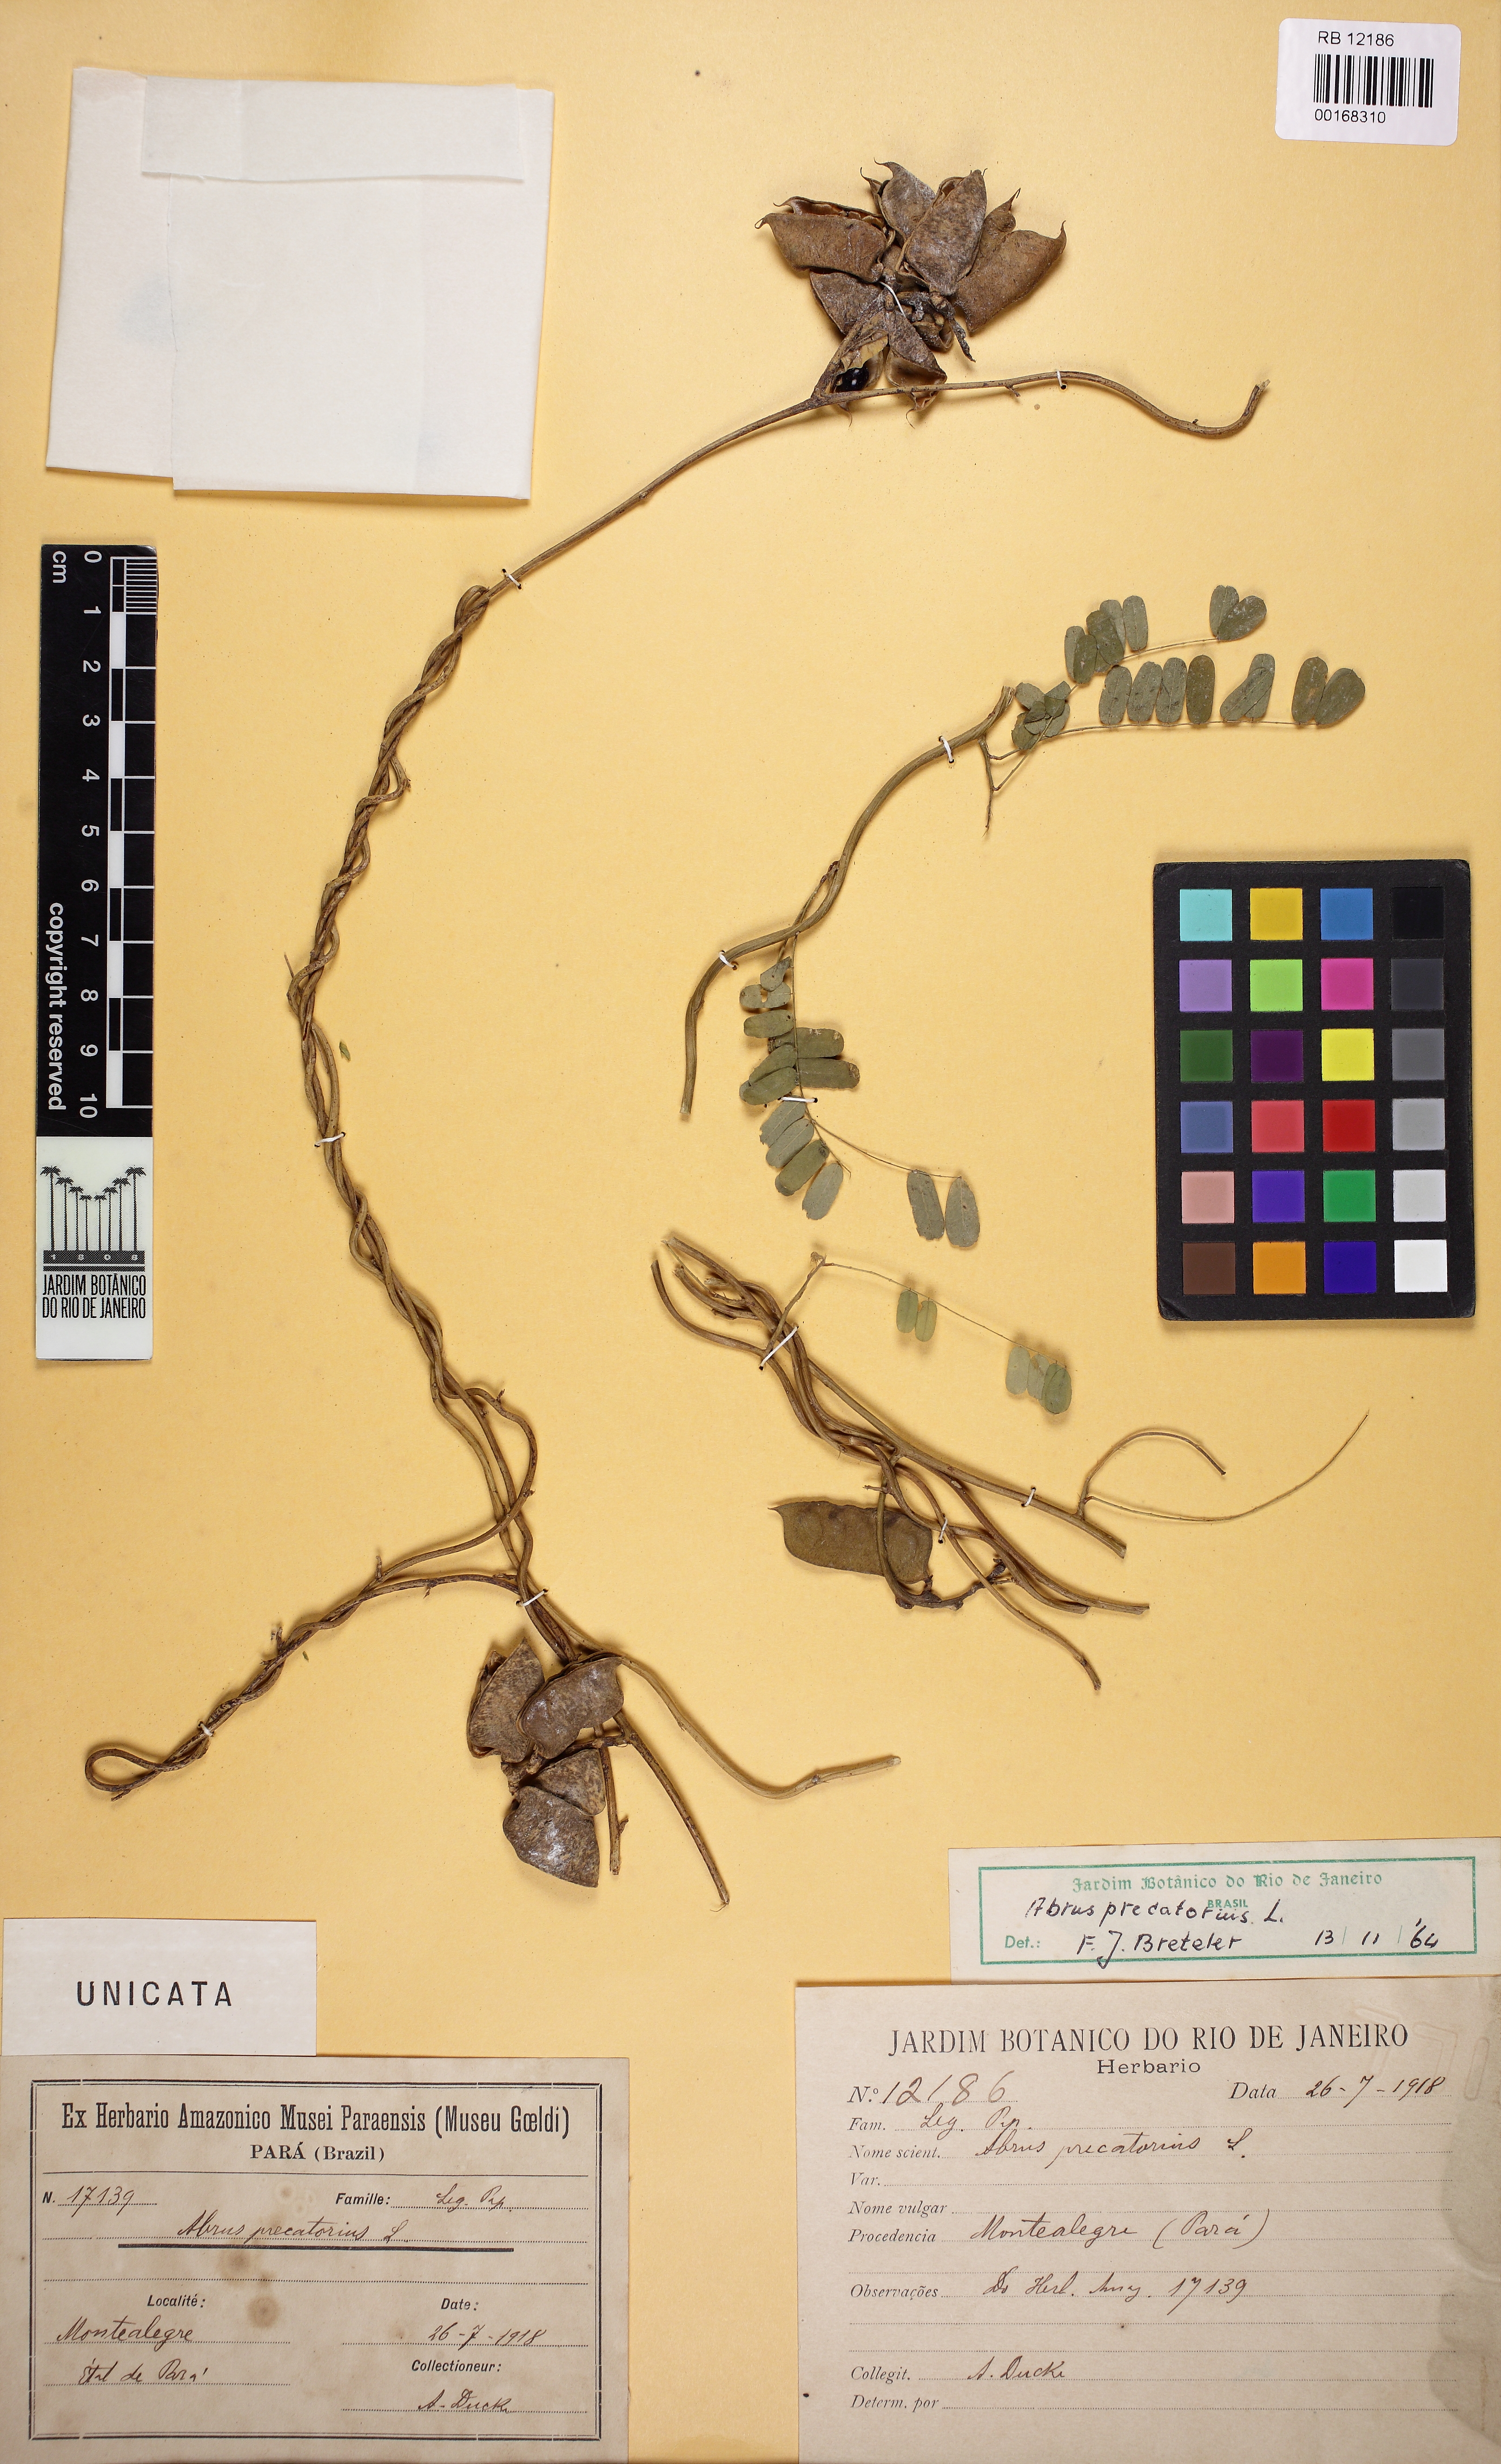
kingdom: Plantae
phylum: Tracheophyta
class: Magnoliopsida
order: Fabales
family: Fabaceae
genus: Abrus
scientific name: Abrus precatorius
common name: Rosarypea
